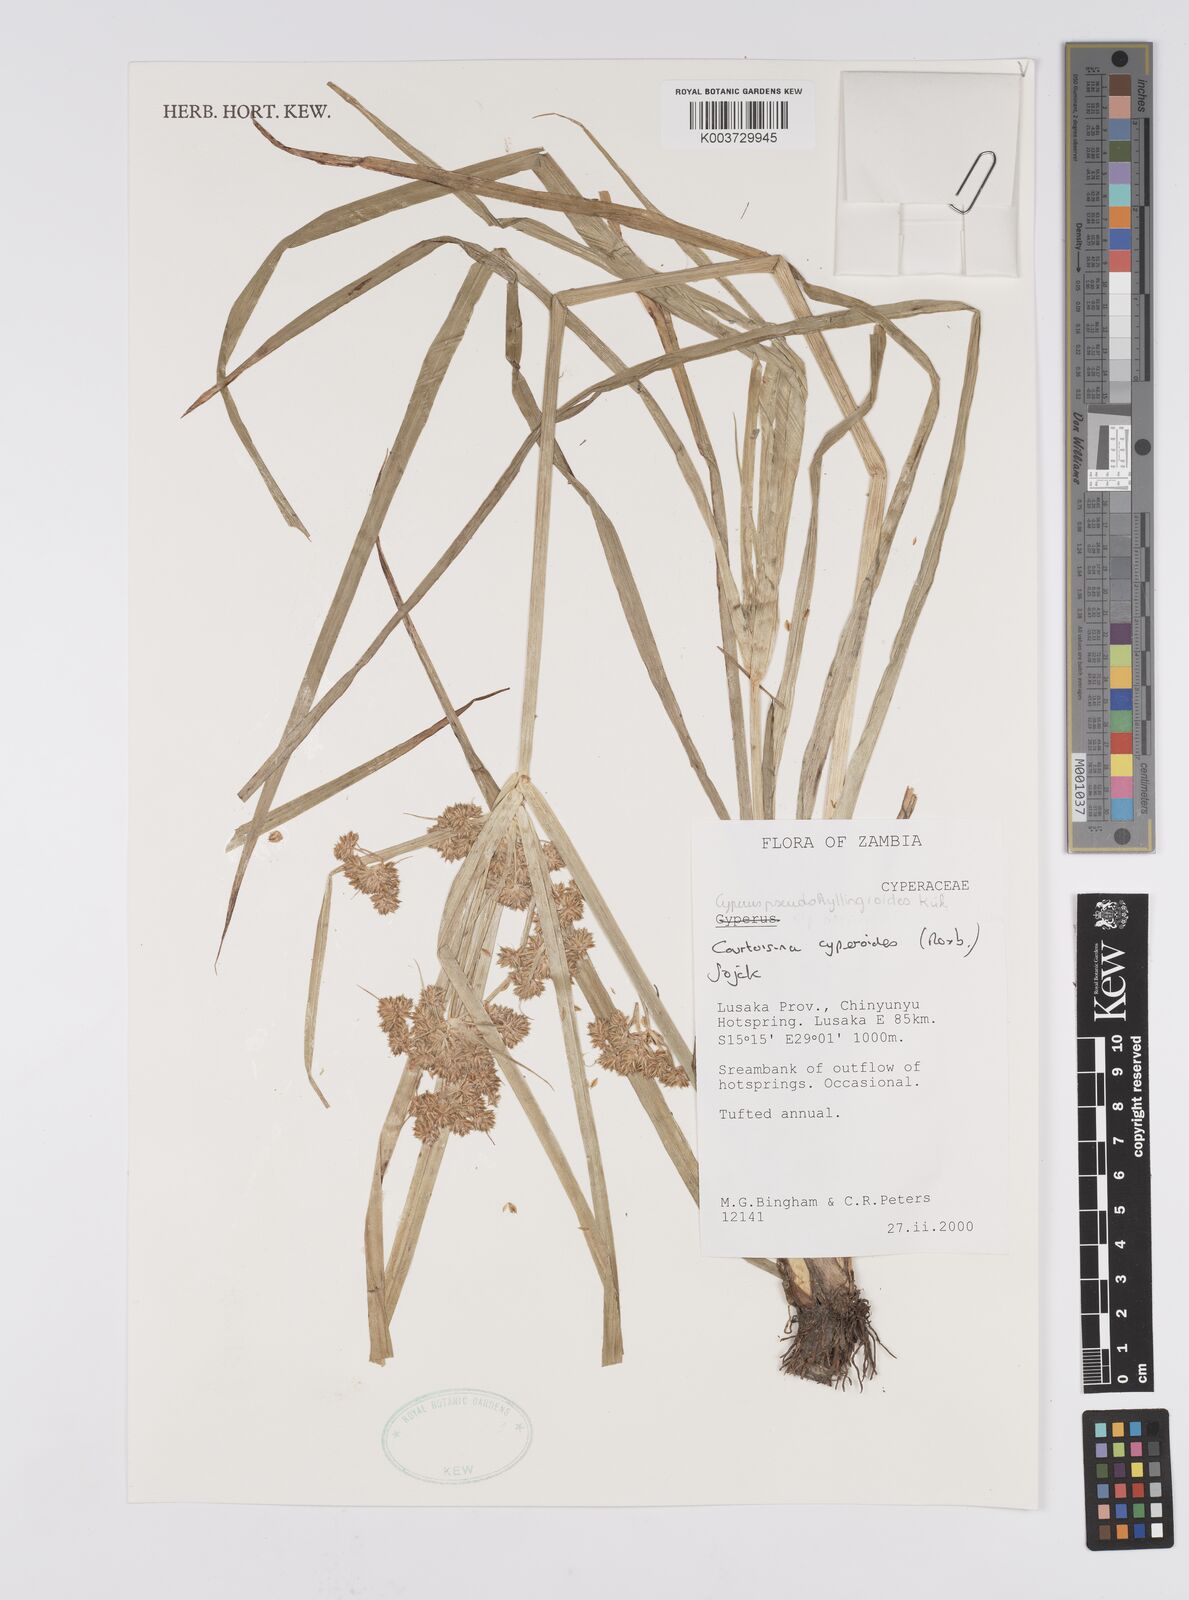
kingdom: Plantae
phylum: Tracheophyta
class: Liliopsida
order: Poales
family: Cyperaceae
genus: Cyperus
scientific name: Cyperus cyperoides
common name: Pacific island flat sedge
